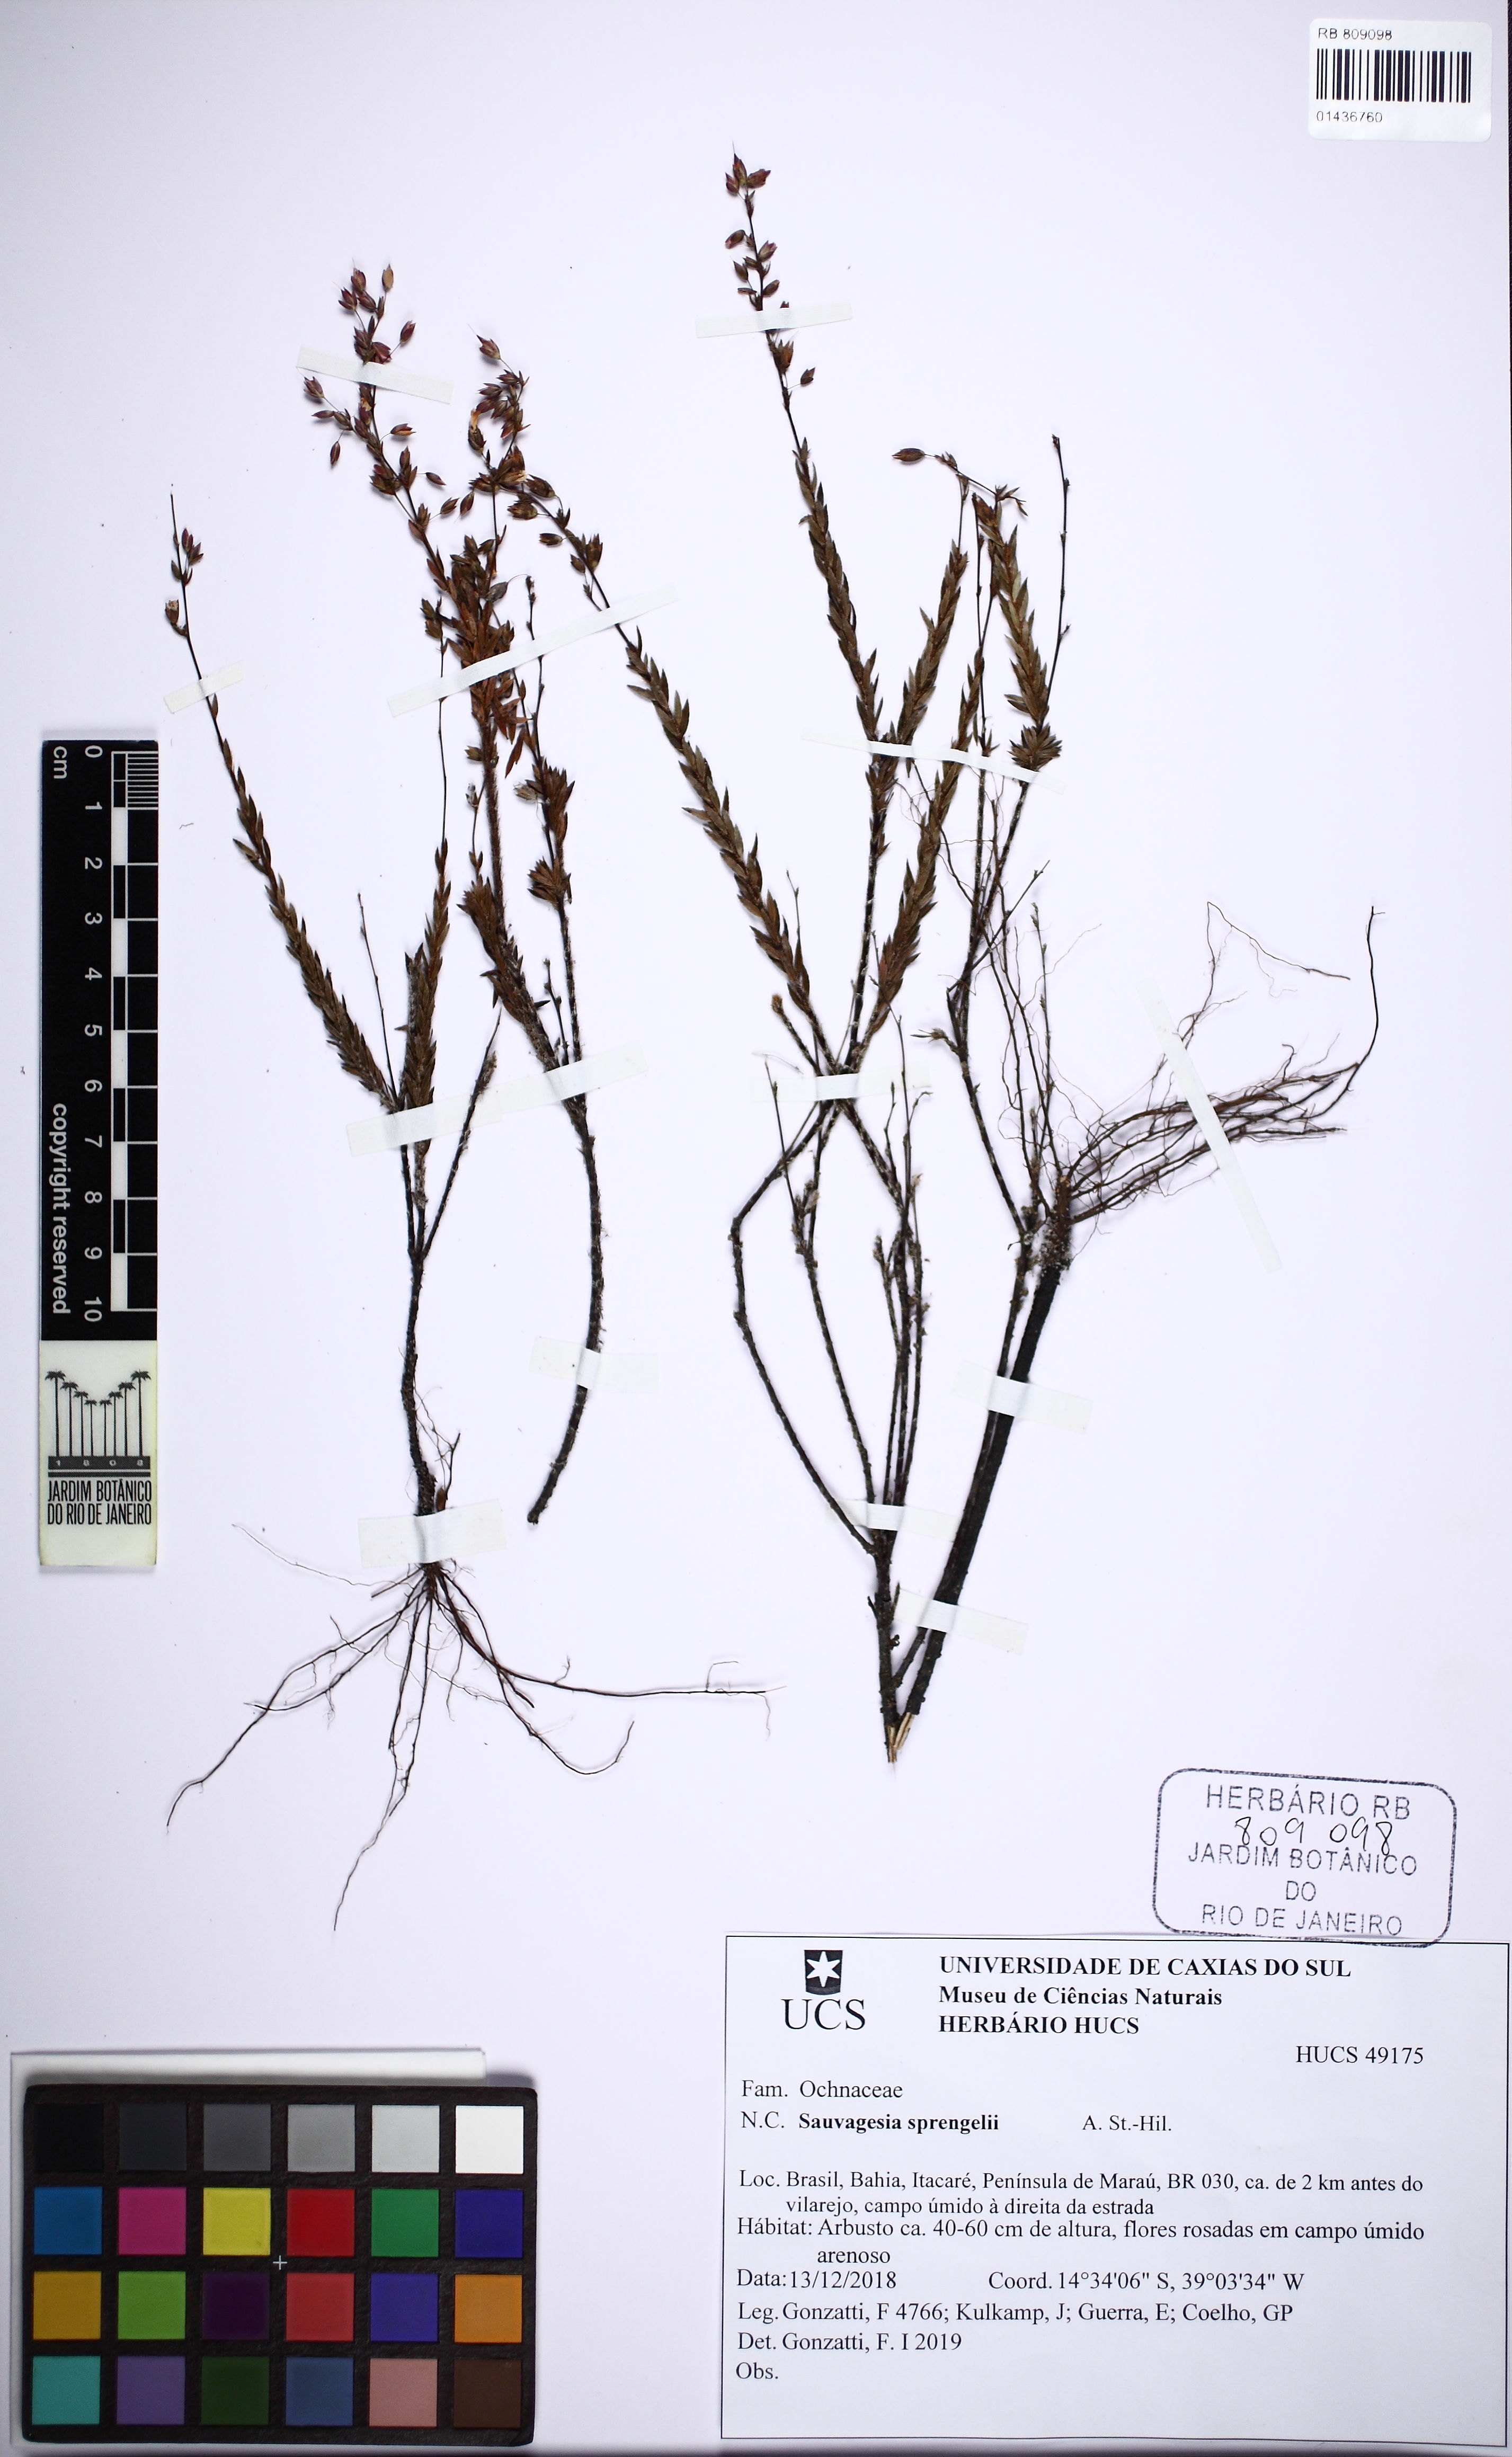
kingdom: Plantae
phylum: Tracheophyta
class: Magnoliopsida
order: Malpighiales
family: Ochnaceae
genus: Sauvagesia
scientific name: Sauvagesia sprengelii
